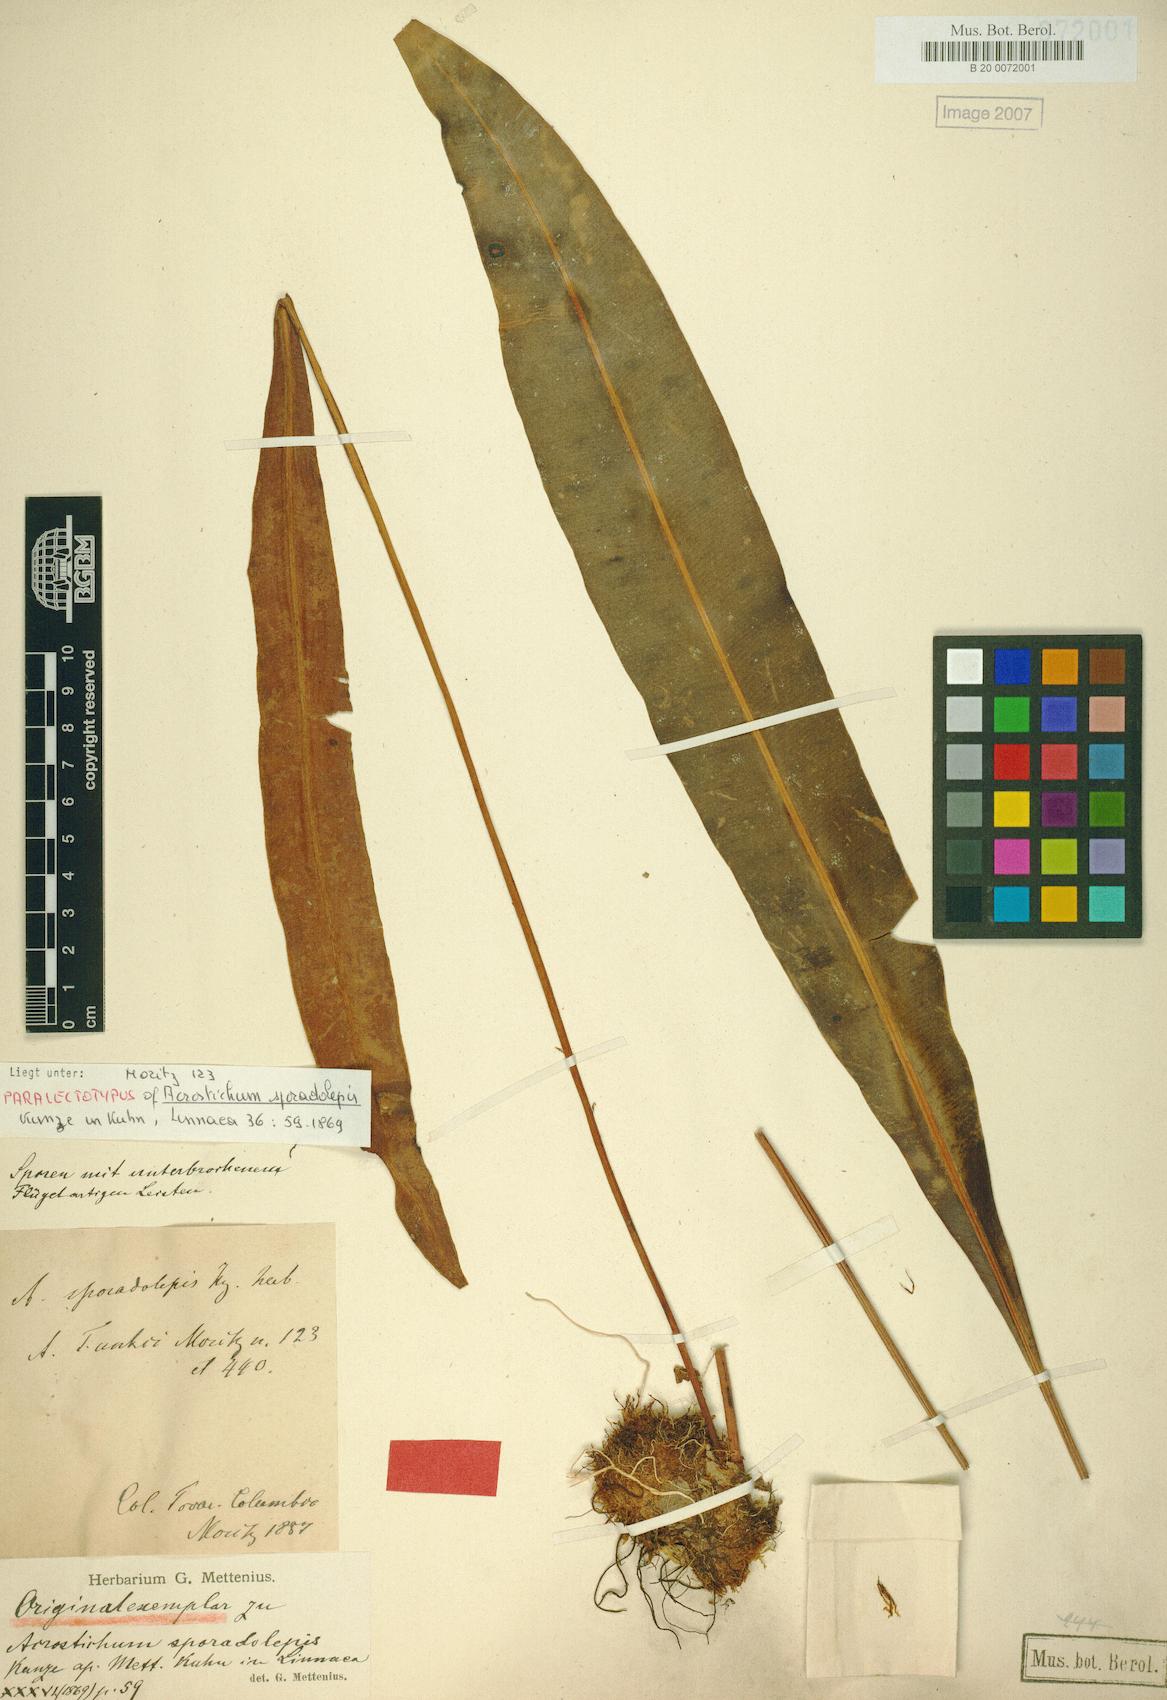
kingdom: Plantae
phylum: Tracheophyta
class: Polypodiopsida
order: Polypodiales
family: Dryopteridaceae
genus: Elaphoglossum
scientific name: Elaphoglossum sporadolepis
